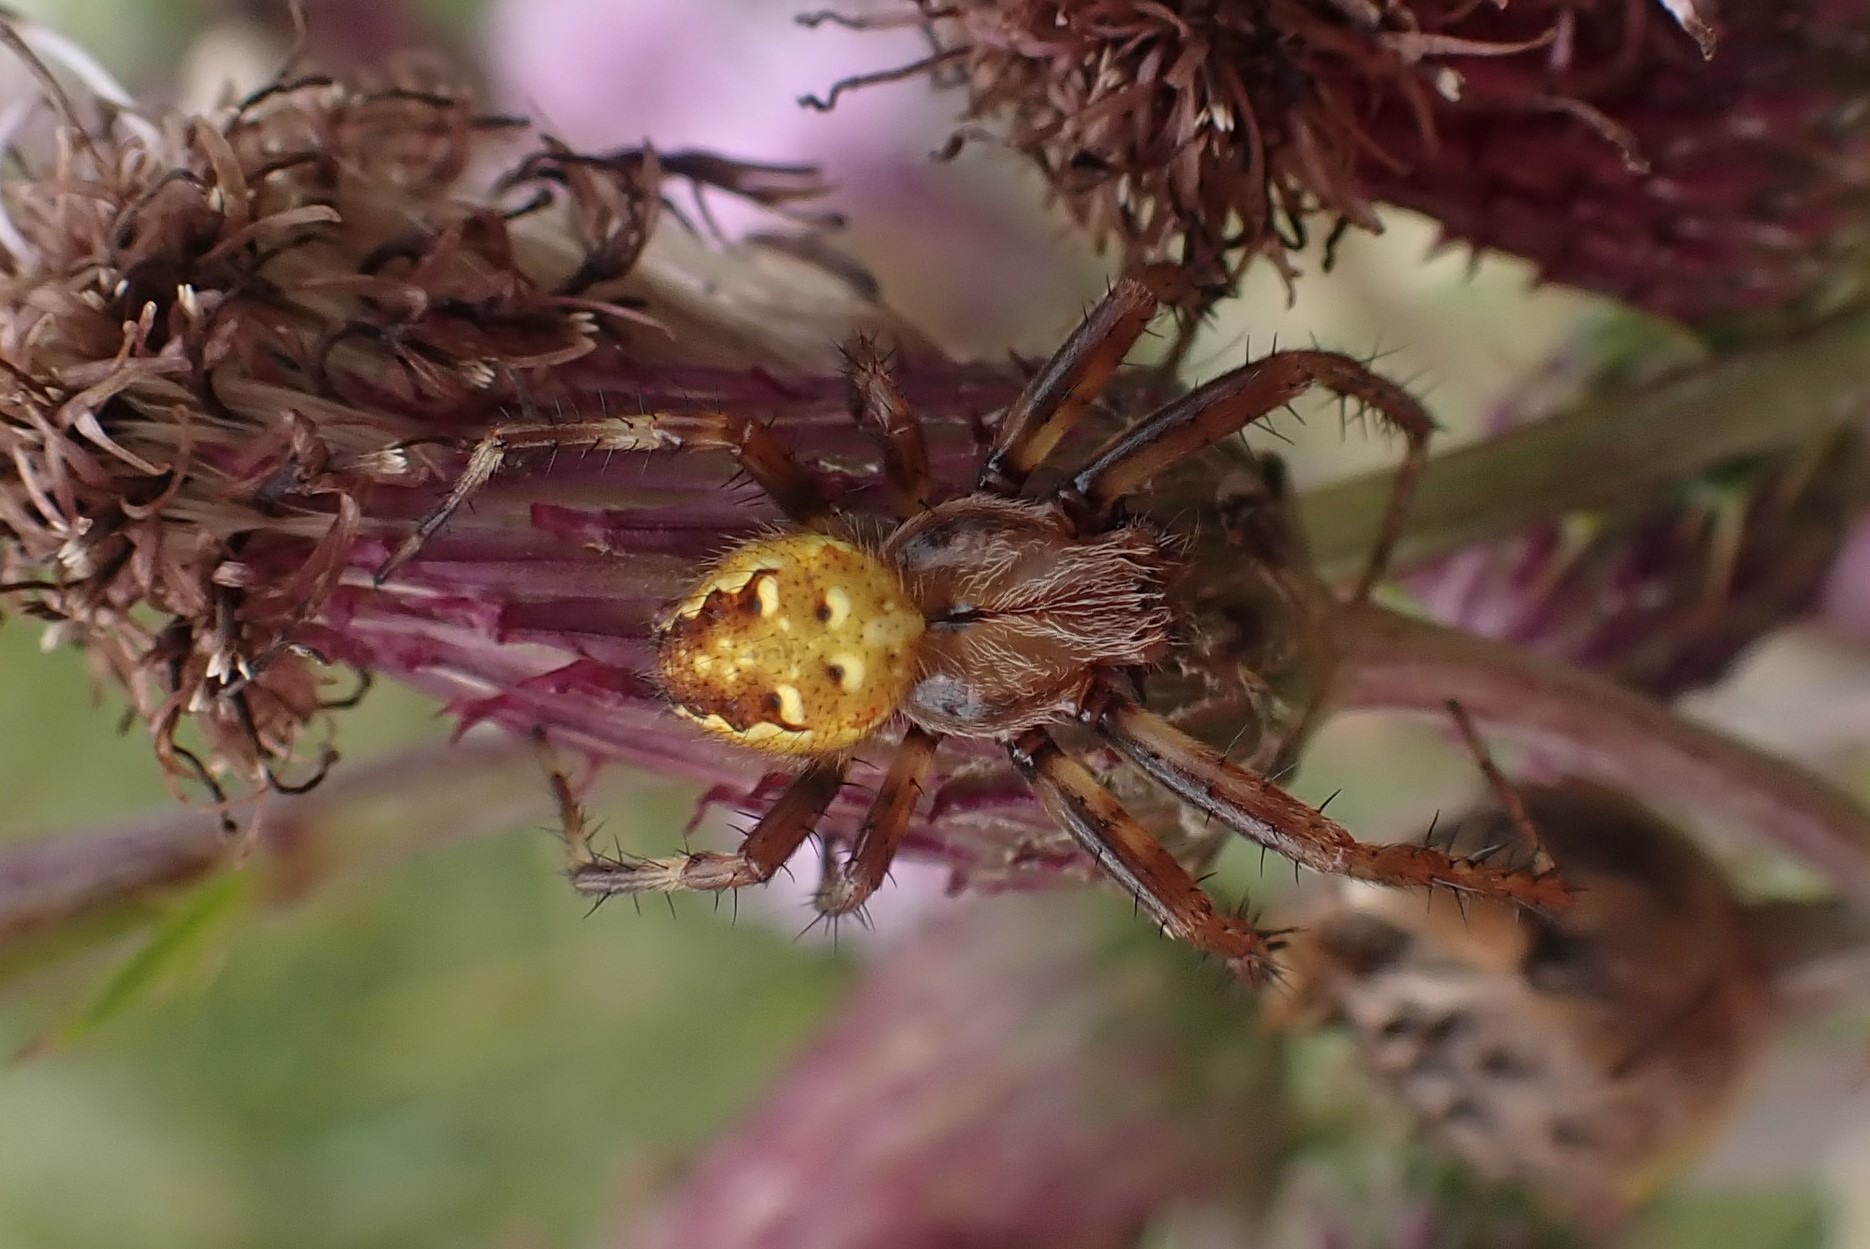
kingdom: Animalia
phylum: Arthropoda
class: Arachnida
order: Araneae
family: Araneidae
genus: Araneus
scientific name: Araneus quadratus
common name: Kvadratedderkop
